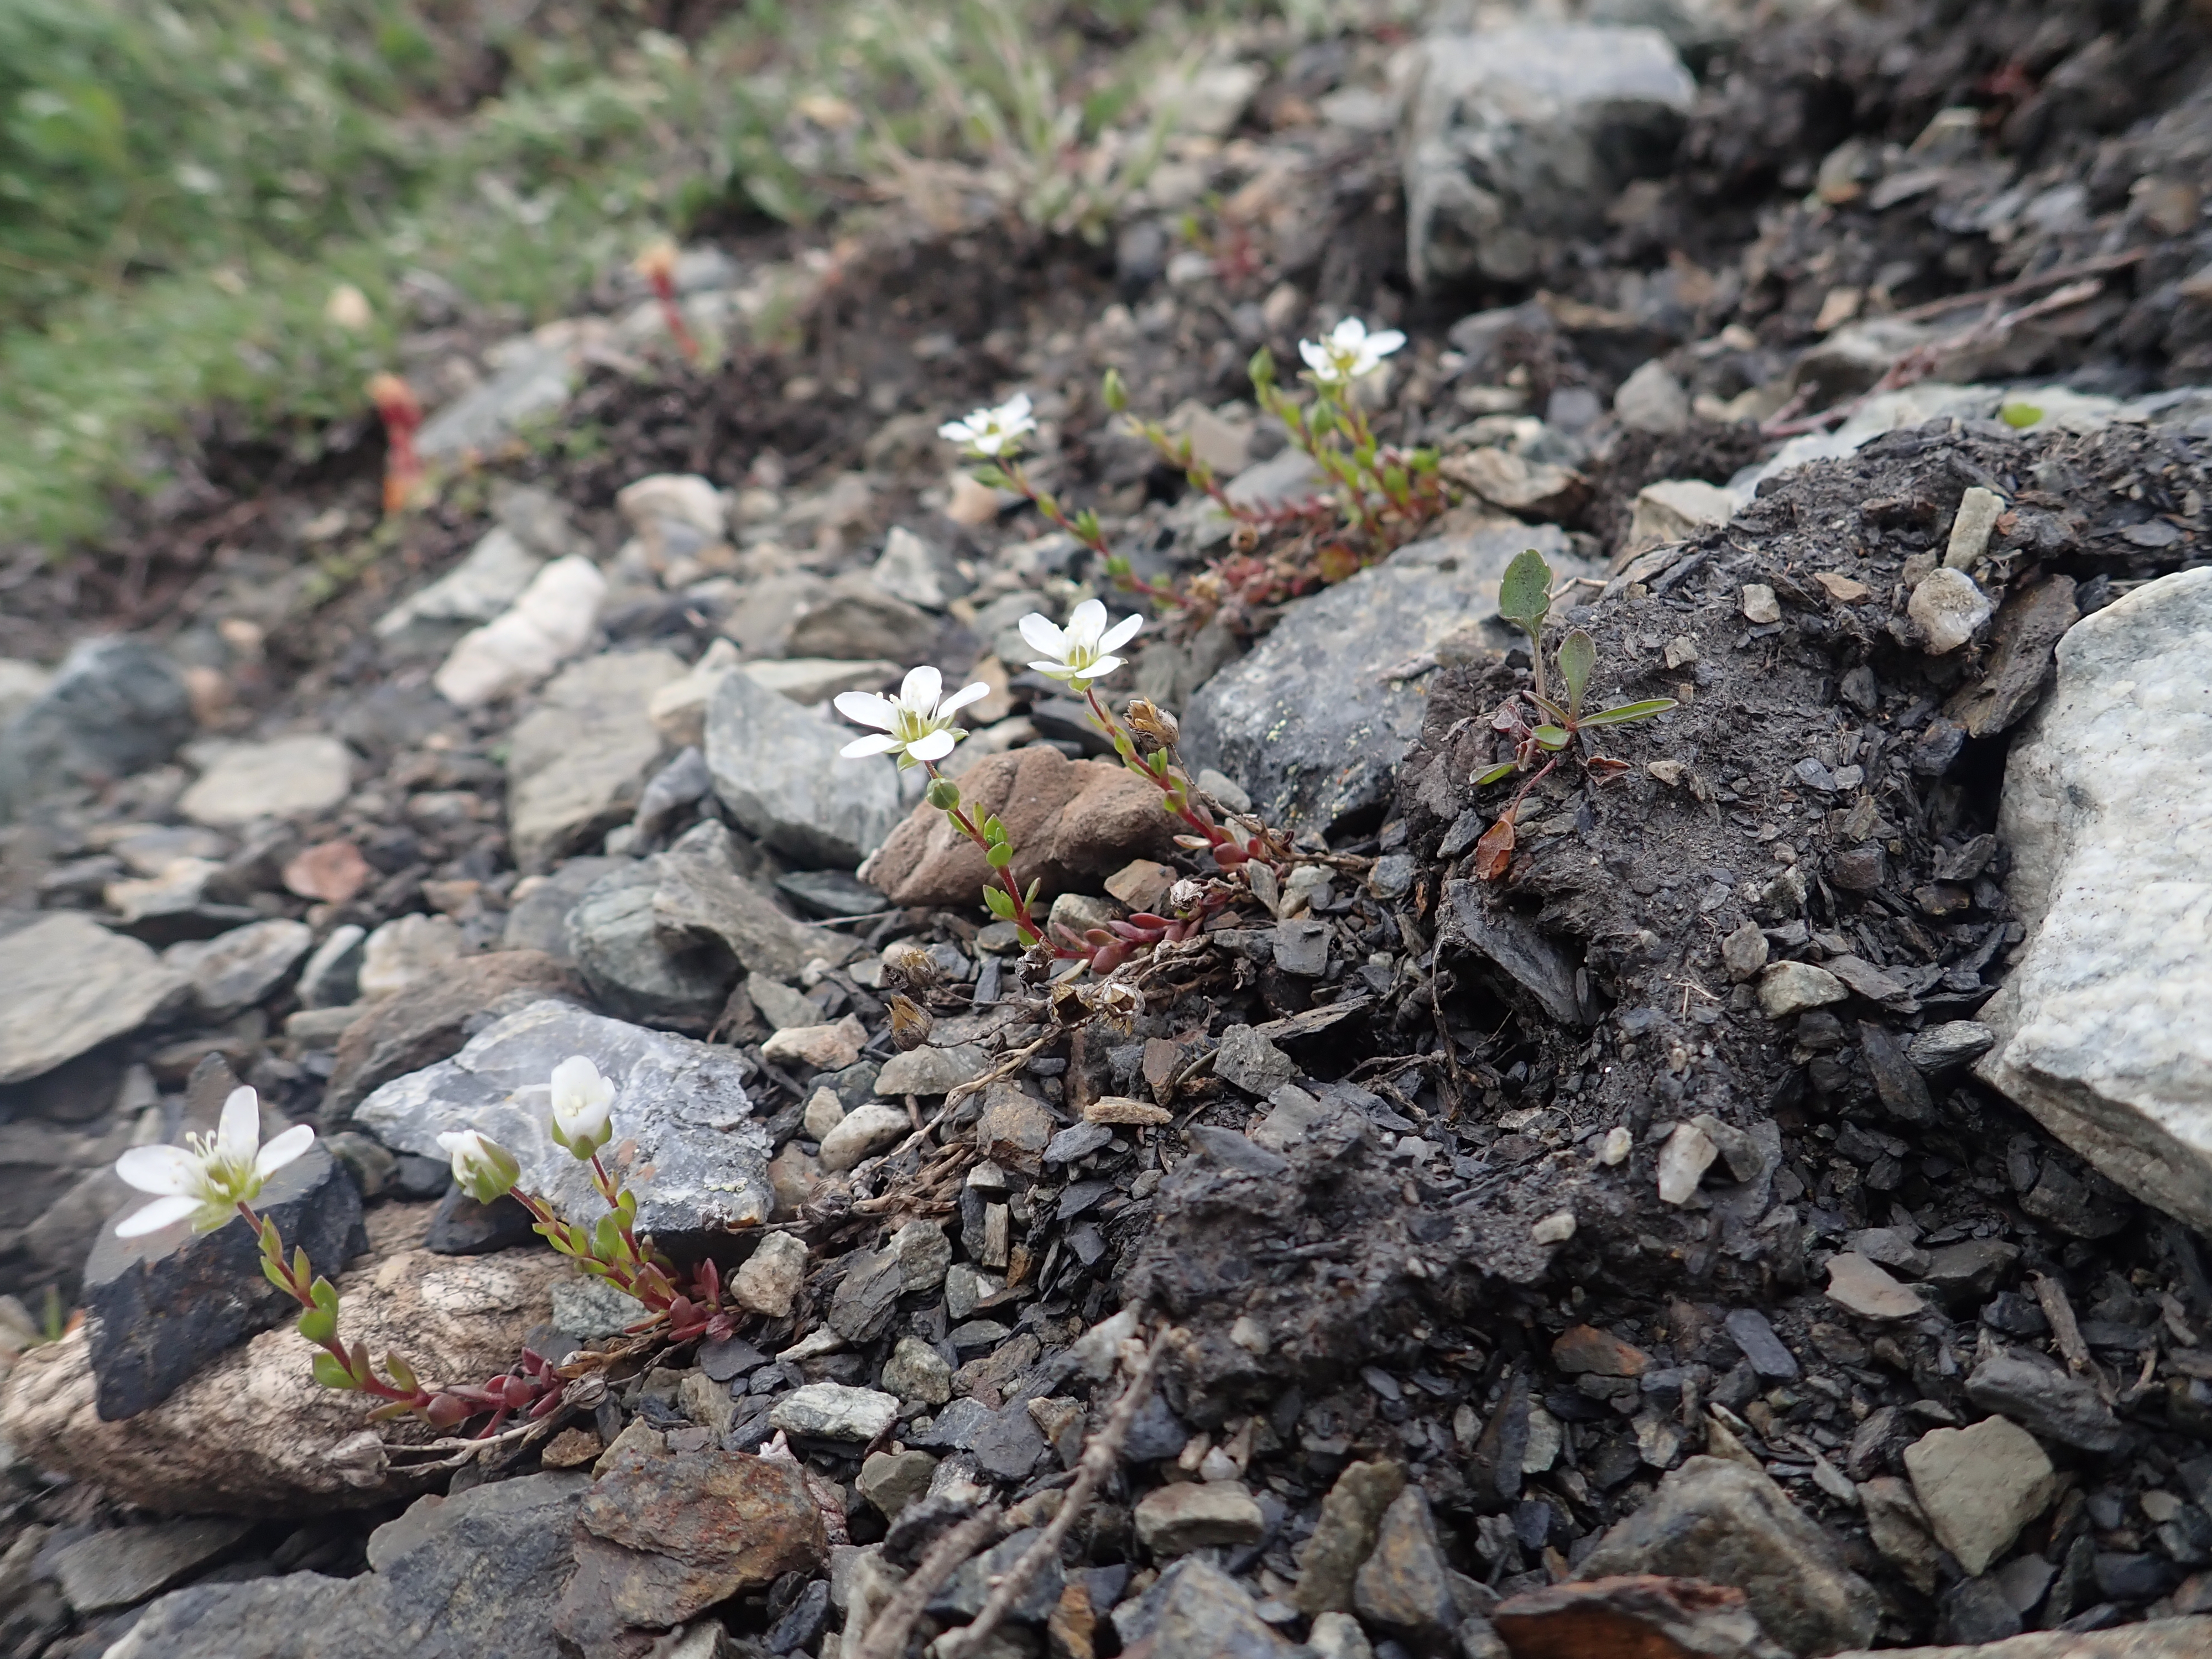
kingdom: Plantae
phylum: Tracheophyta
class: Magnoliopsida
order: Caryophyllales
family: Caryophyllaceae
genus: Arenaria
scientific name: Arenaria norvegica
